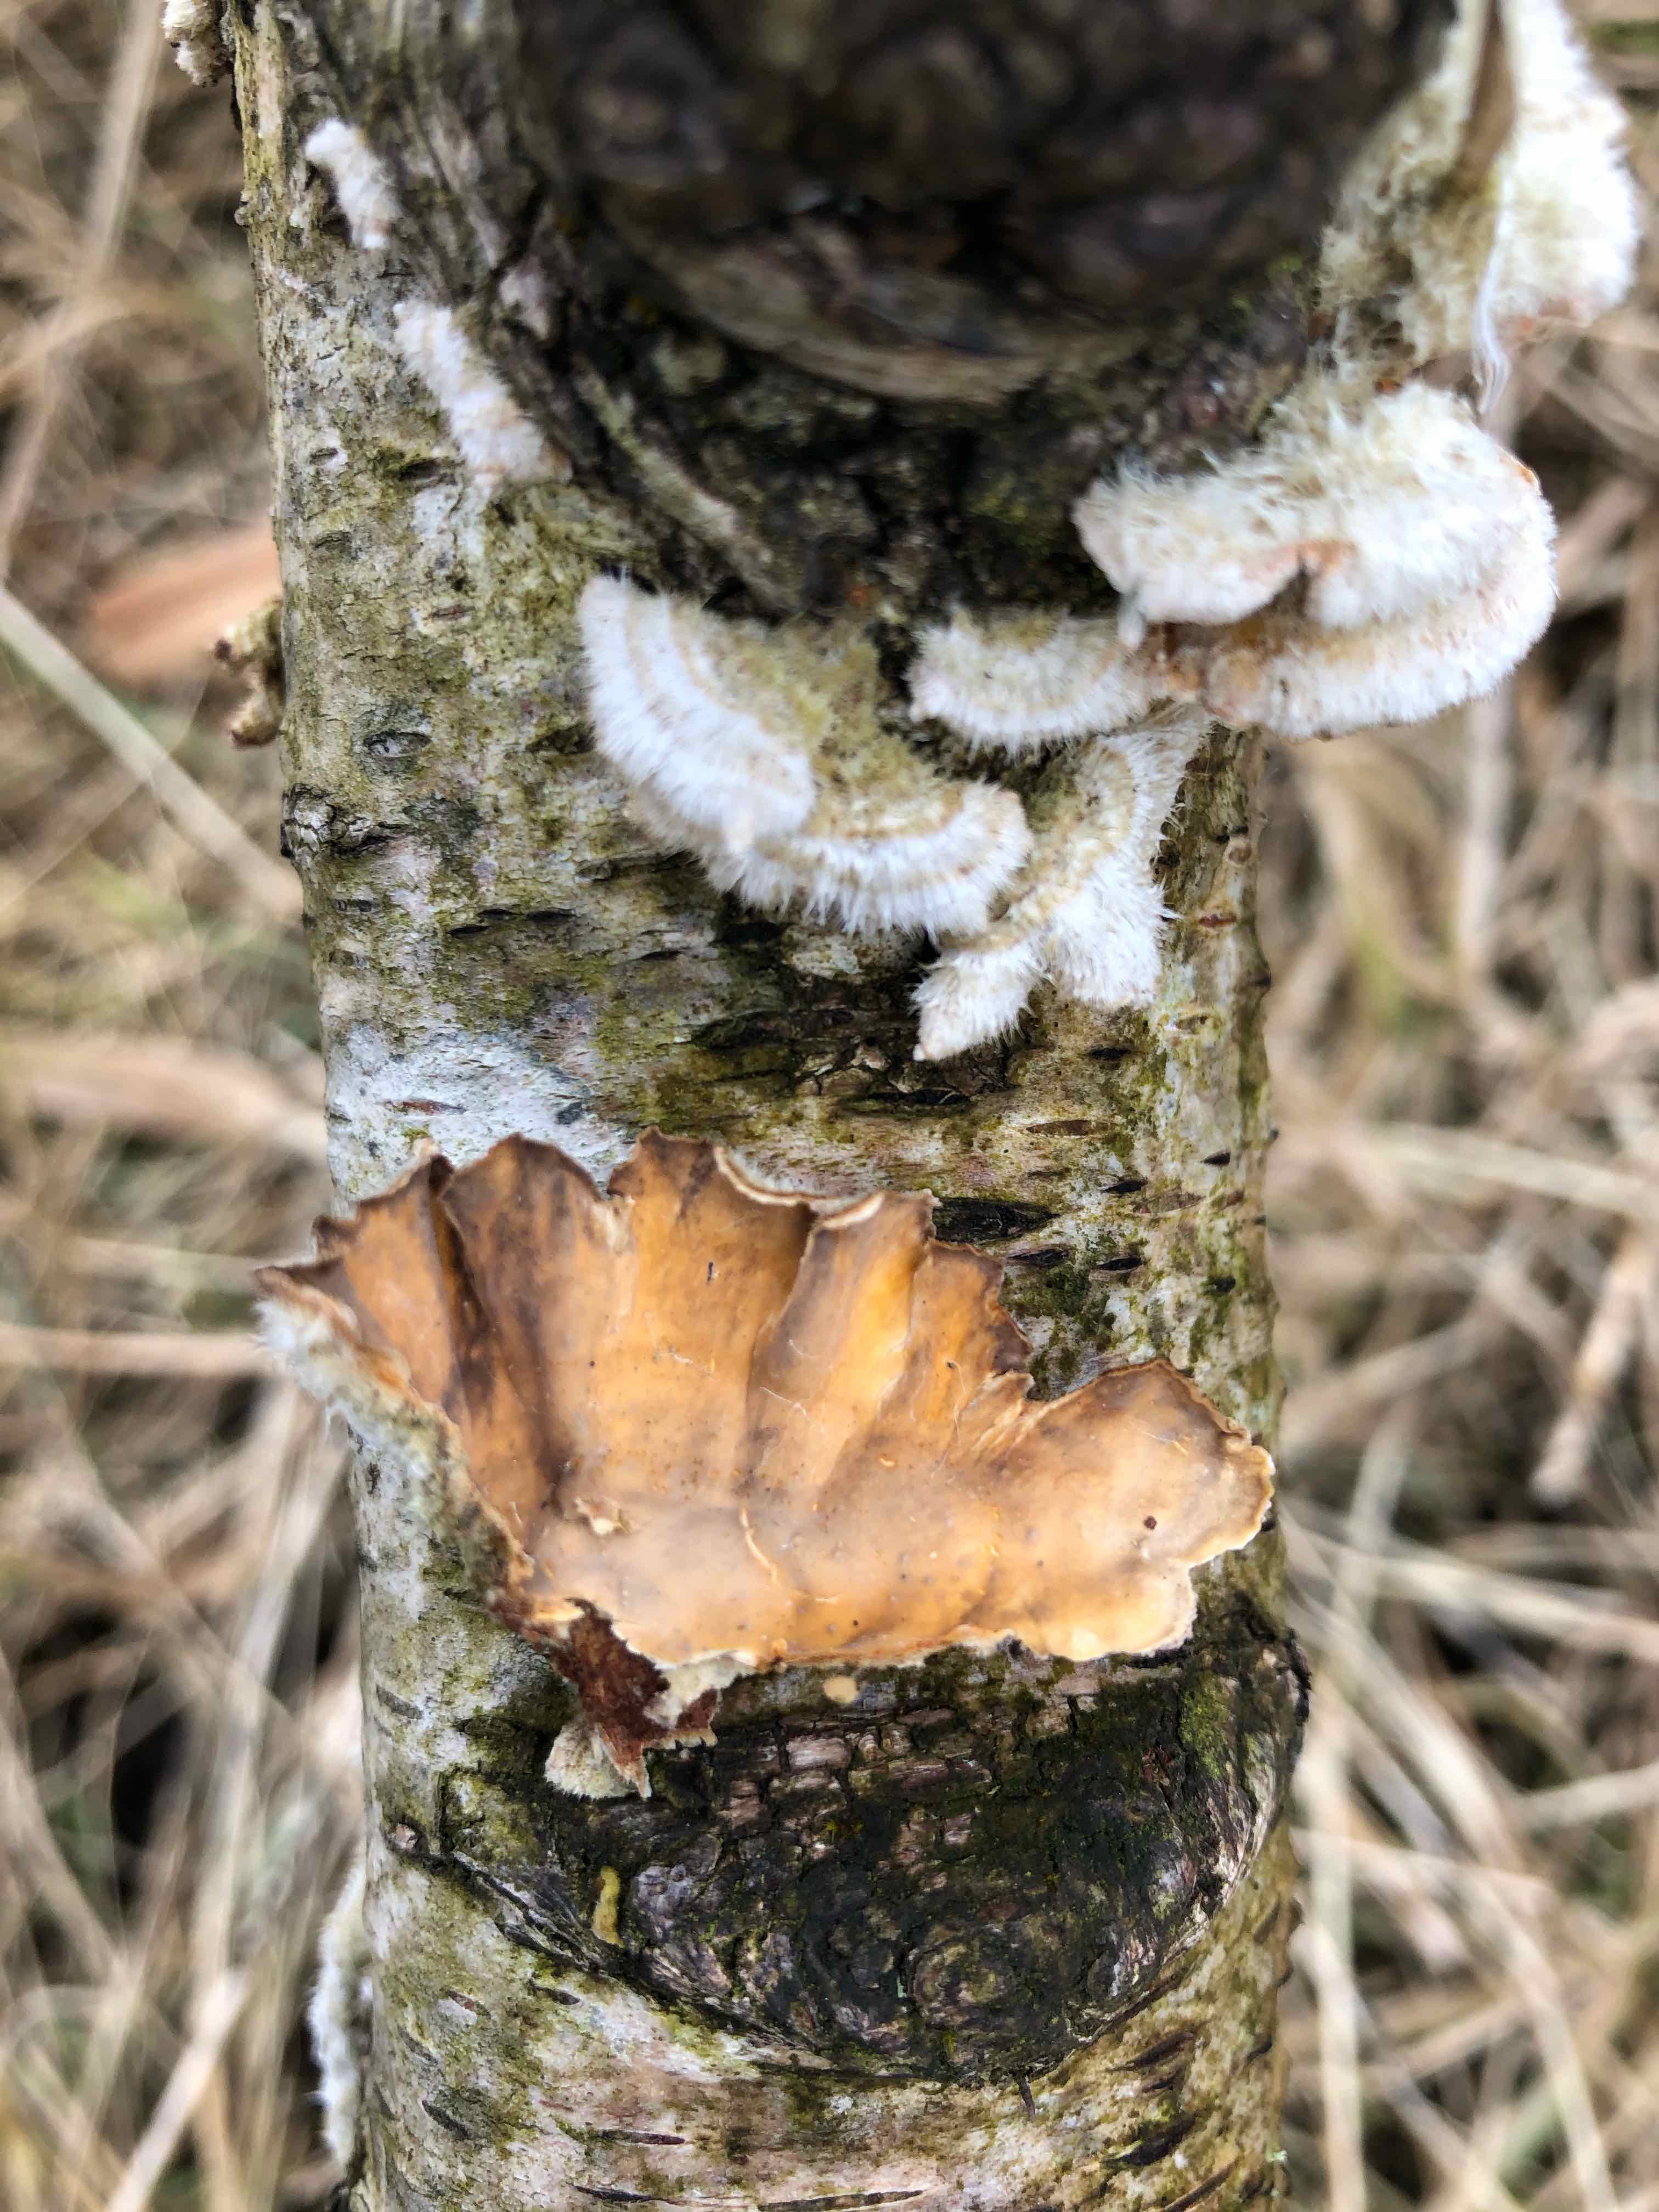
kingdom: Fungi
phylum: Basidiomycota
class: Agaricomycetes
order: Russulales
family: Stereaceae
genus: Stereum
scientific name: Stereum hirsutum
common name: håret lædersvamp
